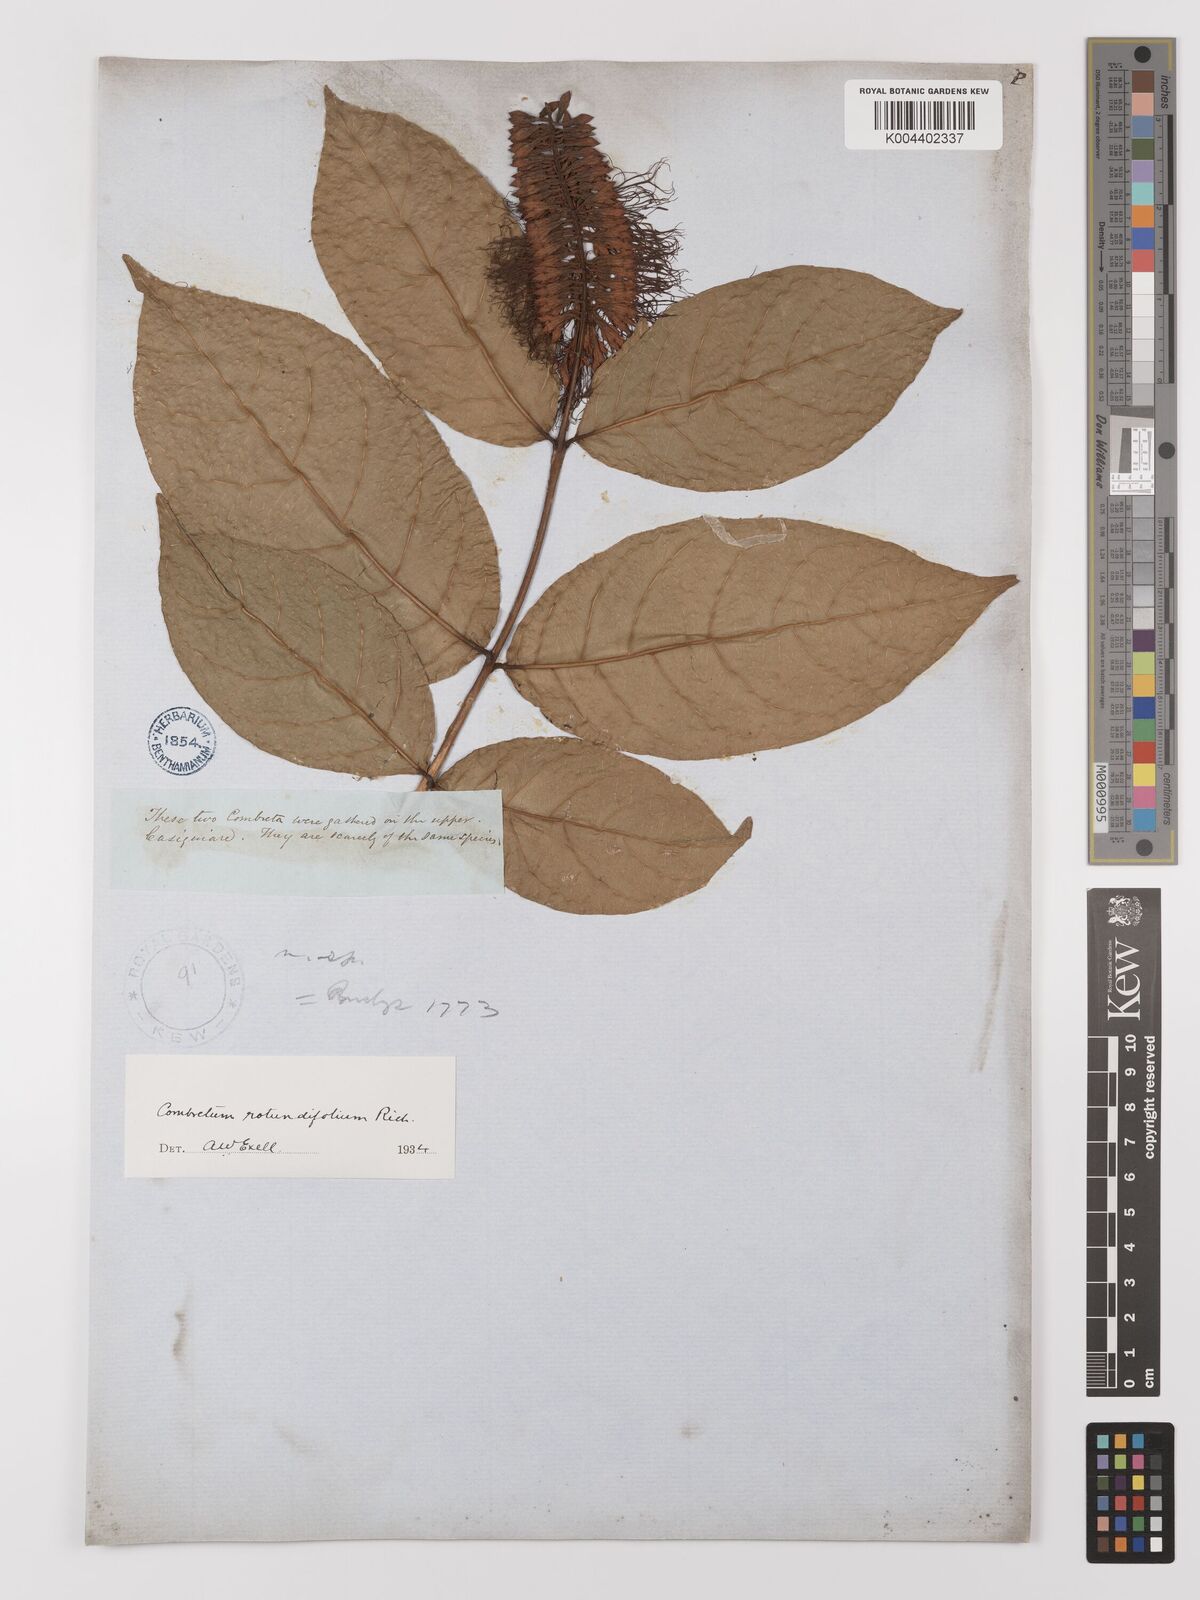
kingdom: Plantae
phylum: Tracheophyta
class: Magnoliopsida
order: Myrtales
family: Combretaceae
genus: Combretum
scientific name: Combretum
